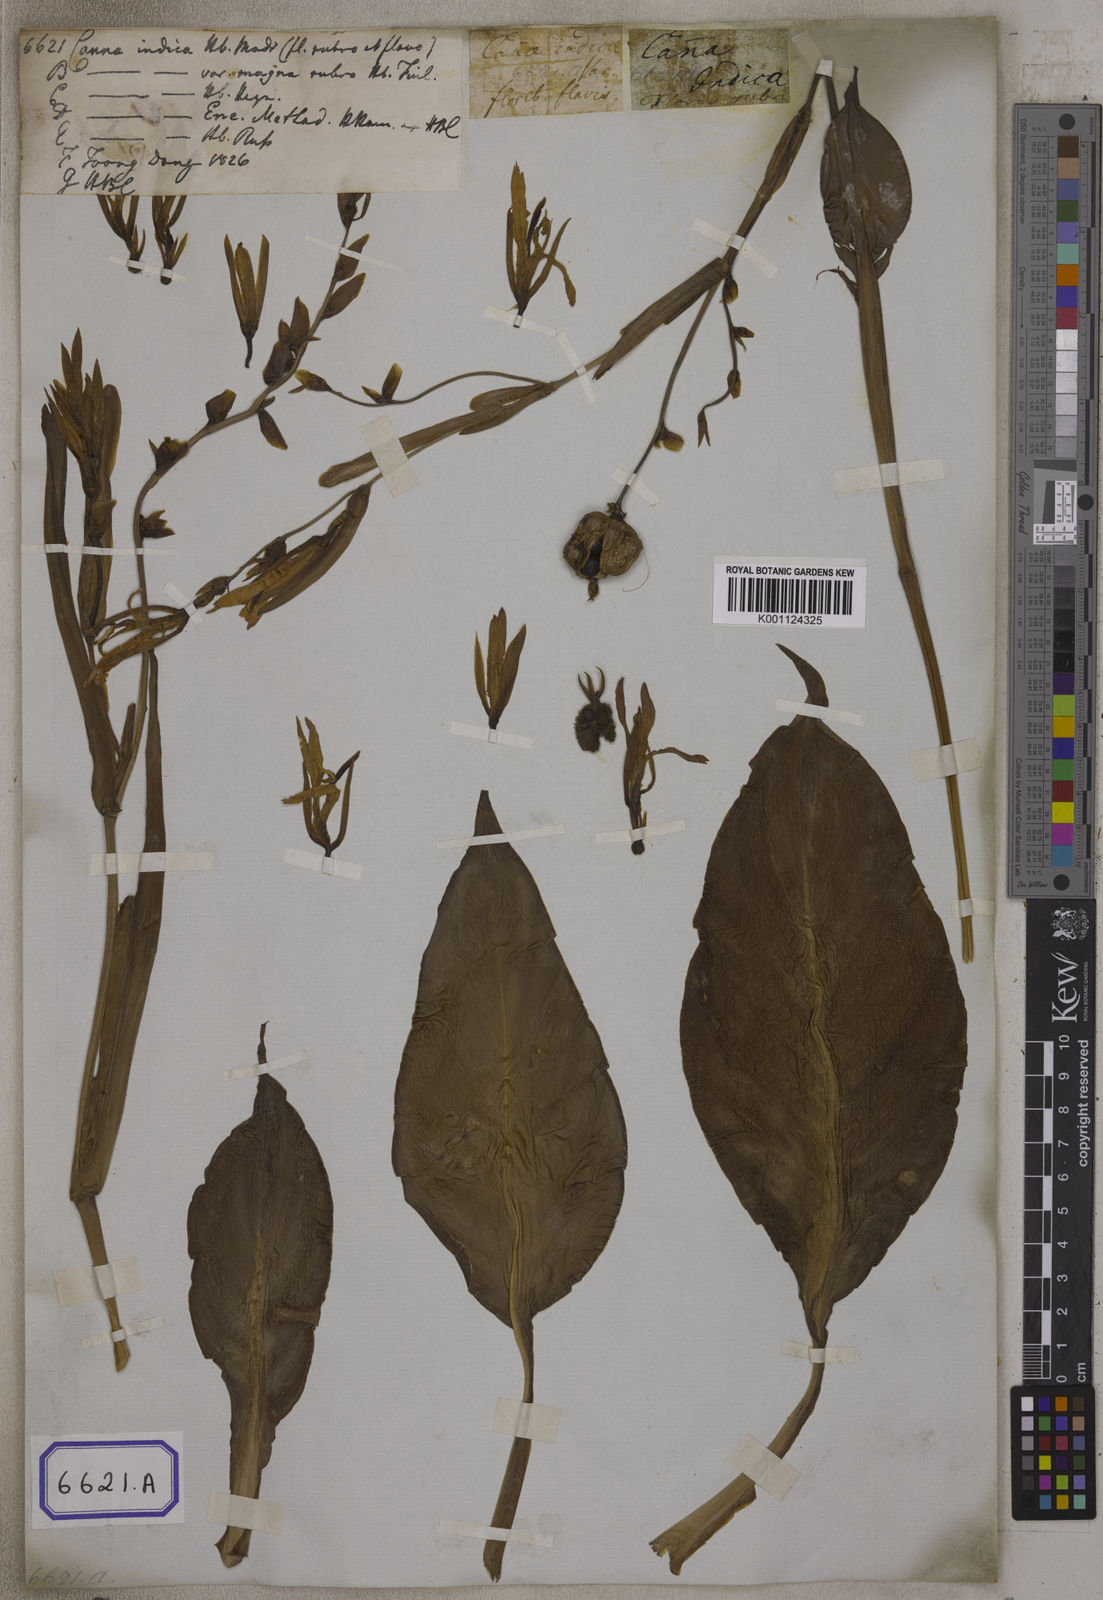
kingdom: Plantae
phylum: Tracheophyta
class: Liliopsida
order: Zingiberales
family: Cannaceae
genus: Canna
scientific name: Canna indica
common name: Indian shot
